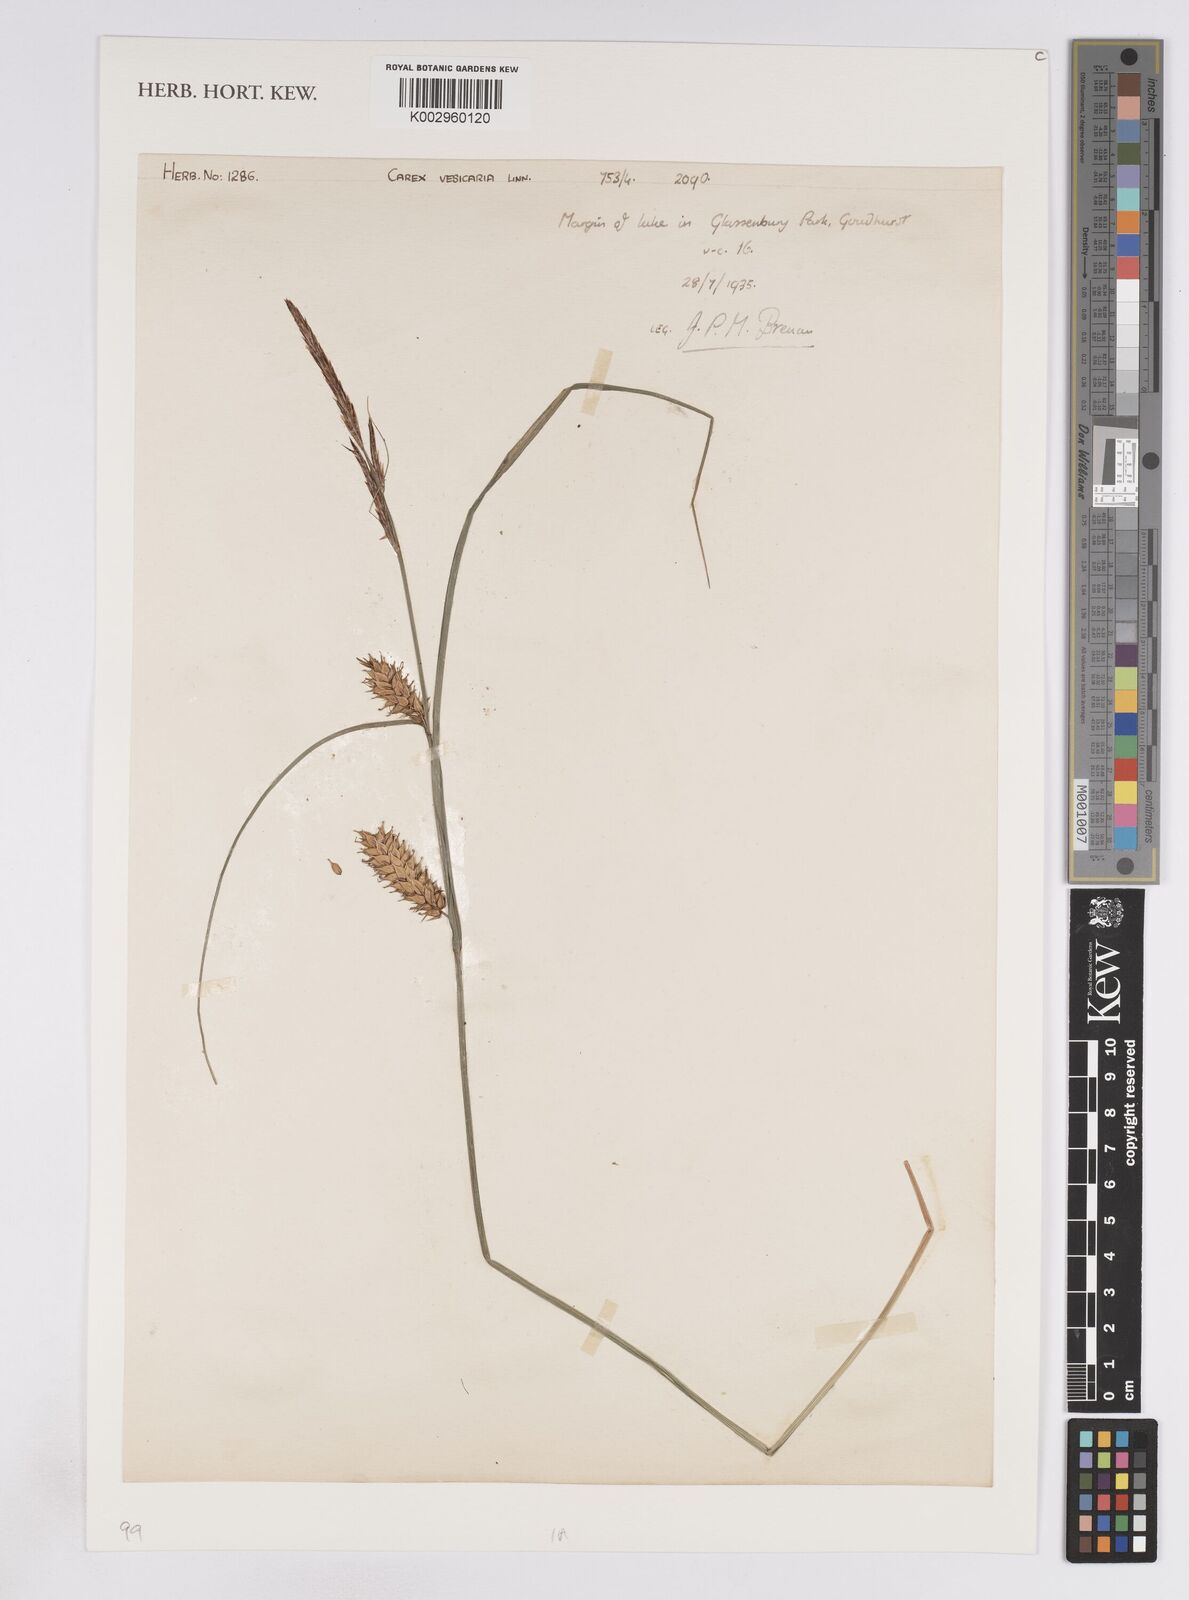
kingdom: Plantae
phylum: Tracheophyta
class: Liliopsida
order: Poales
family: Cyperaceae
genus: Carex
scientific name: Carex vesicaria
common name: Bladder-sedge
